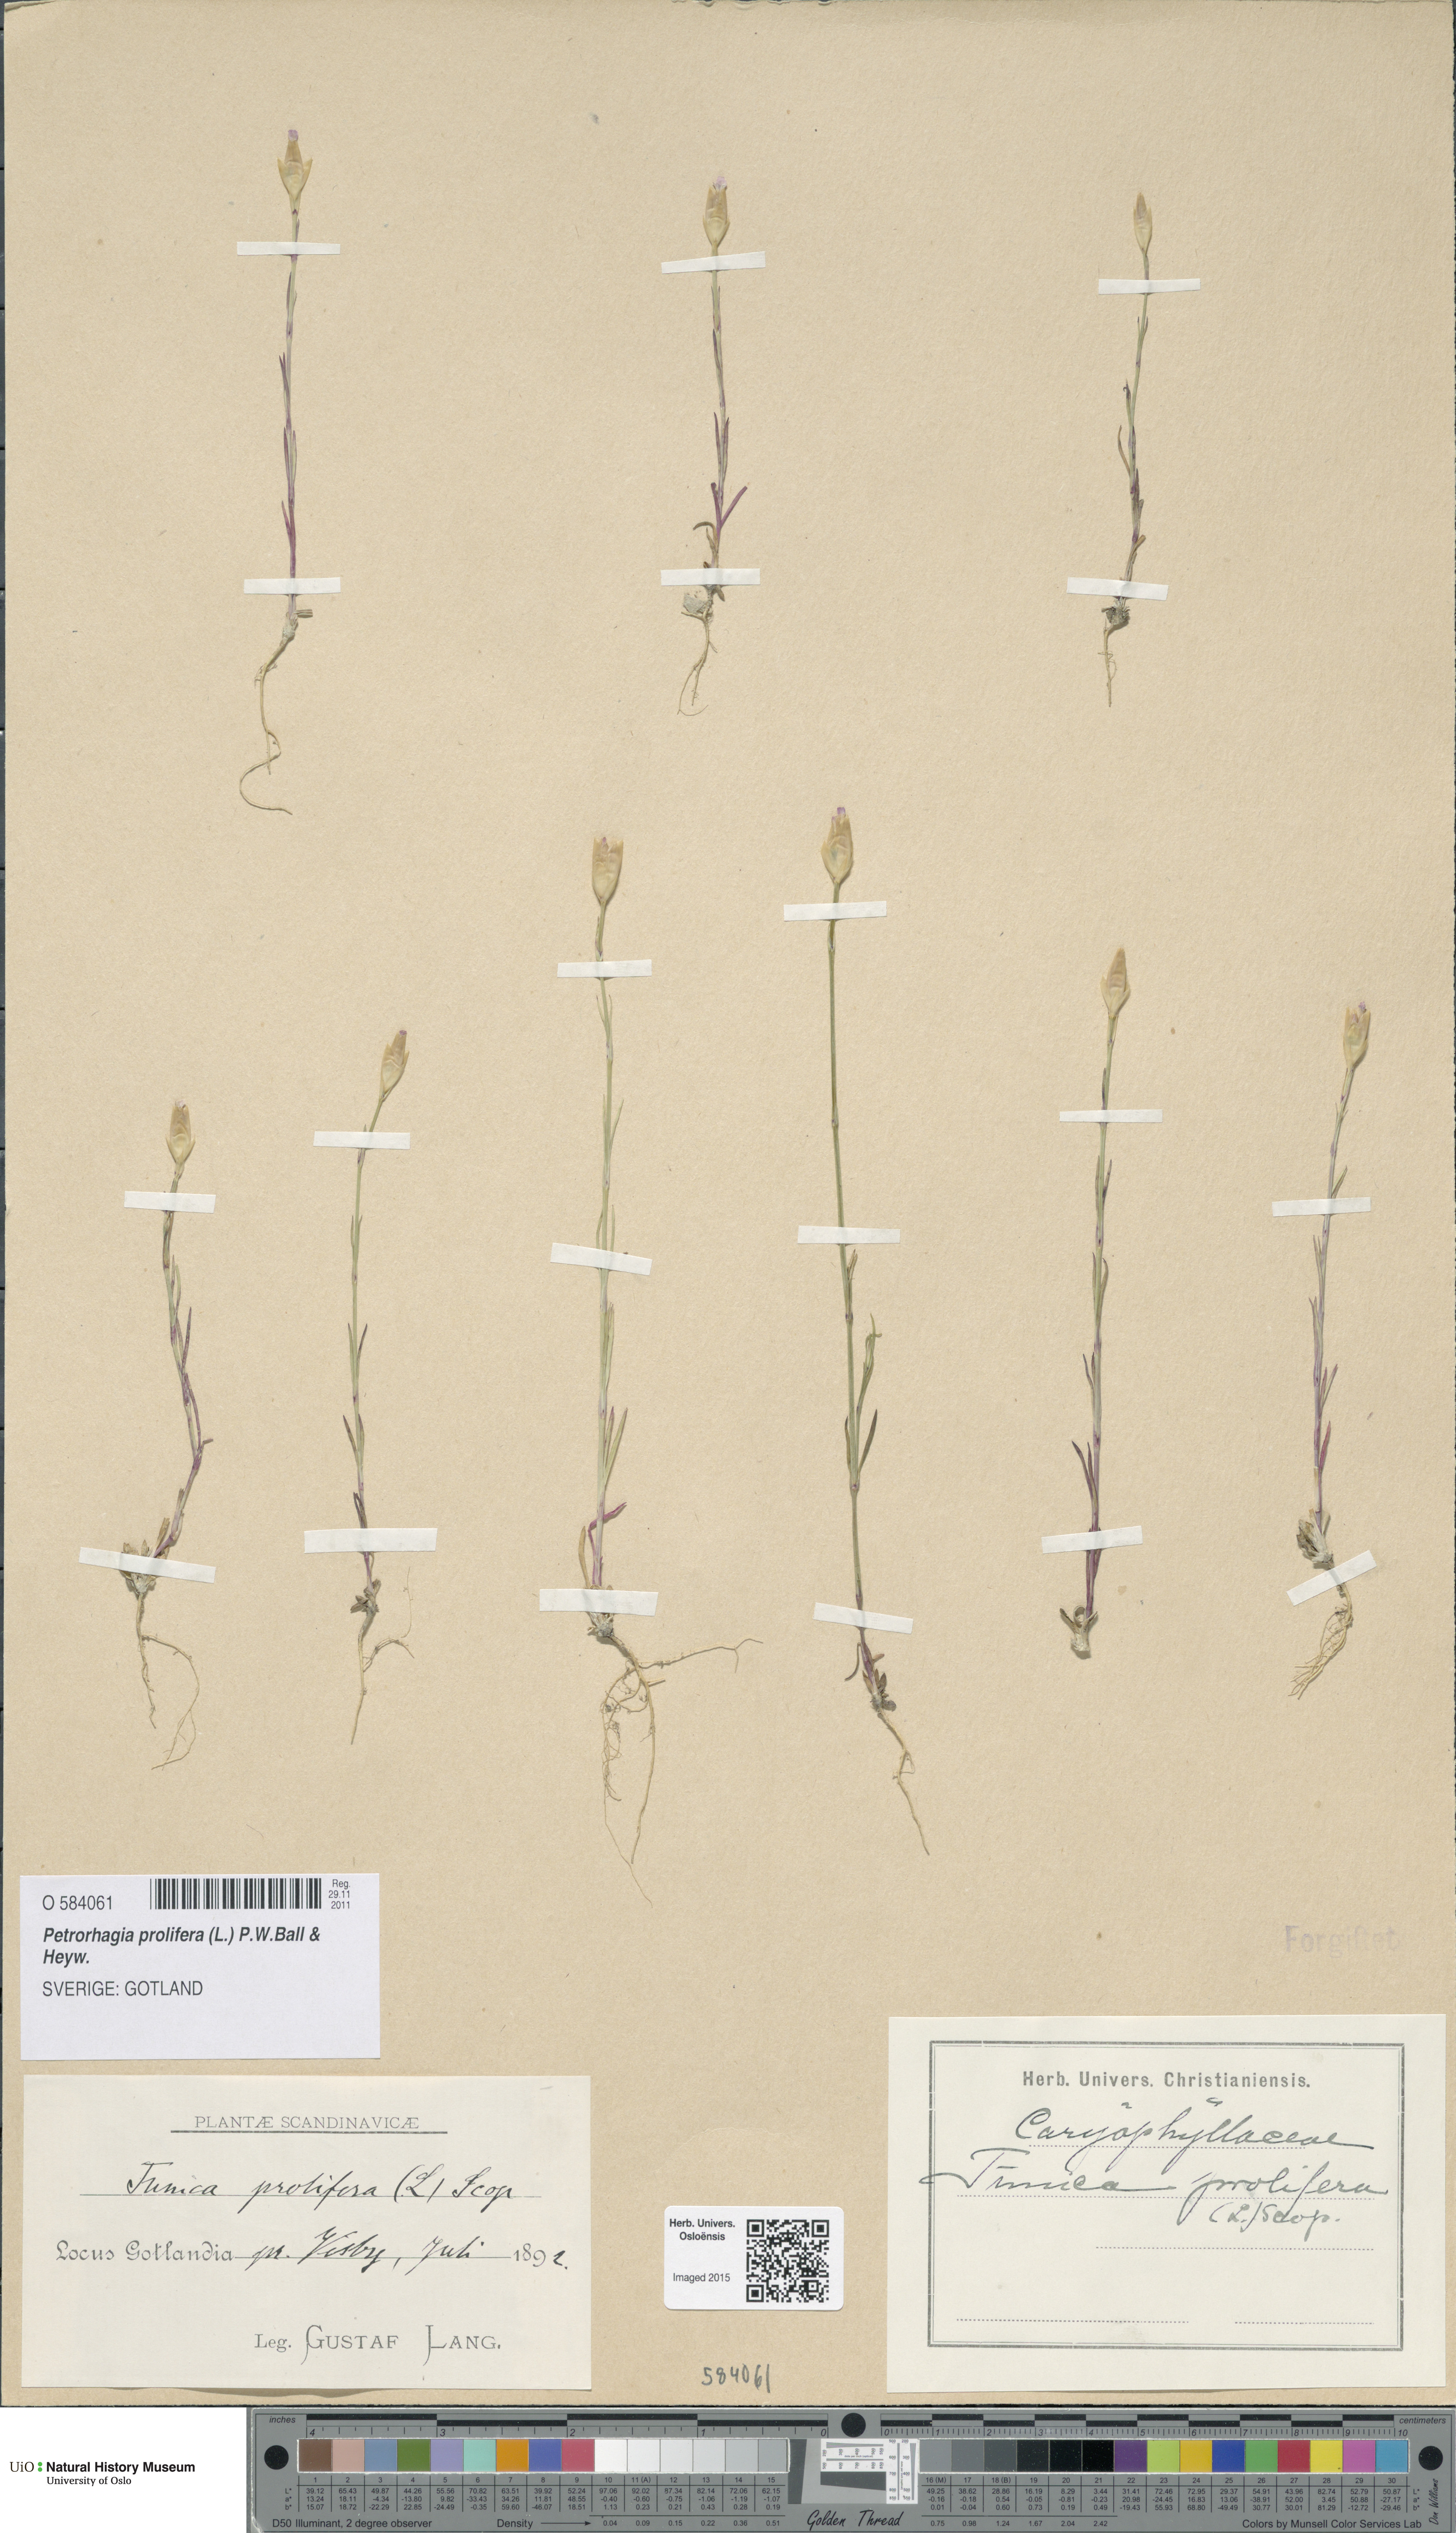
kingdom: Plantae
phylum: Tracheophyta
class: Magnoliopsida
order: Caryophyllales
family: Caryophyllaceae
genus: Petrorhagia
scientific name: Petrorhagia prolifera
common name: Proliferous pink
